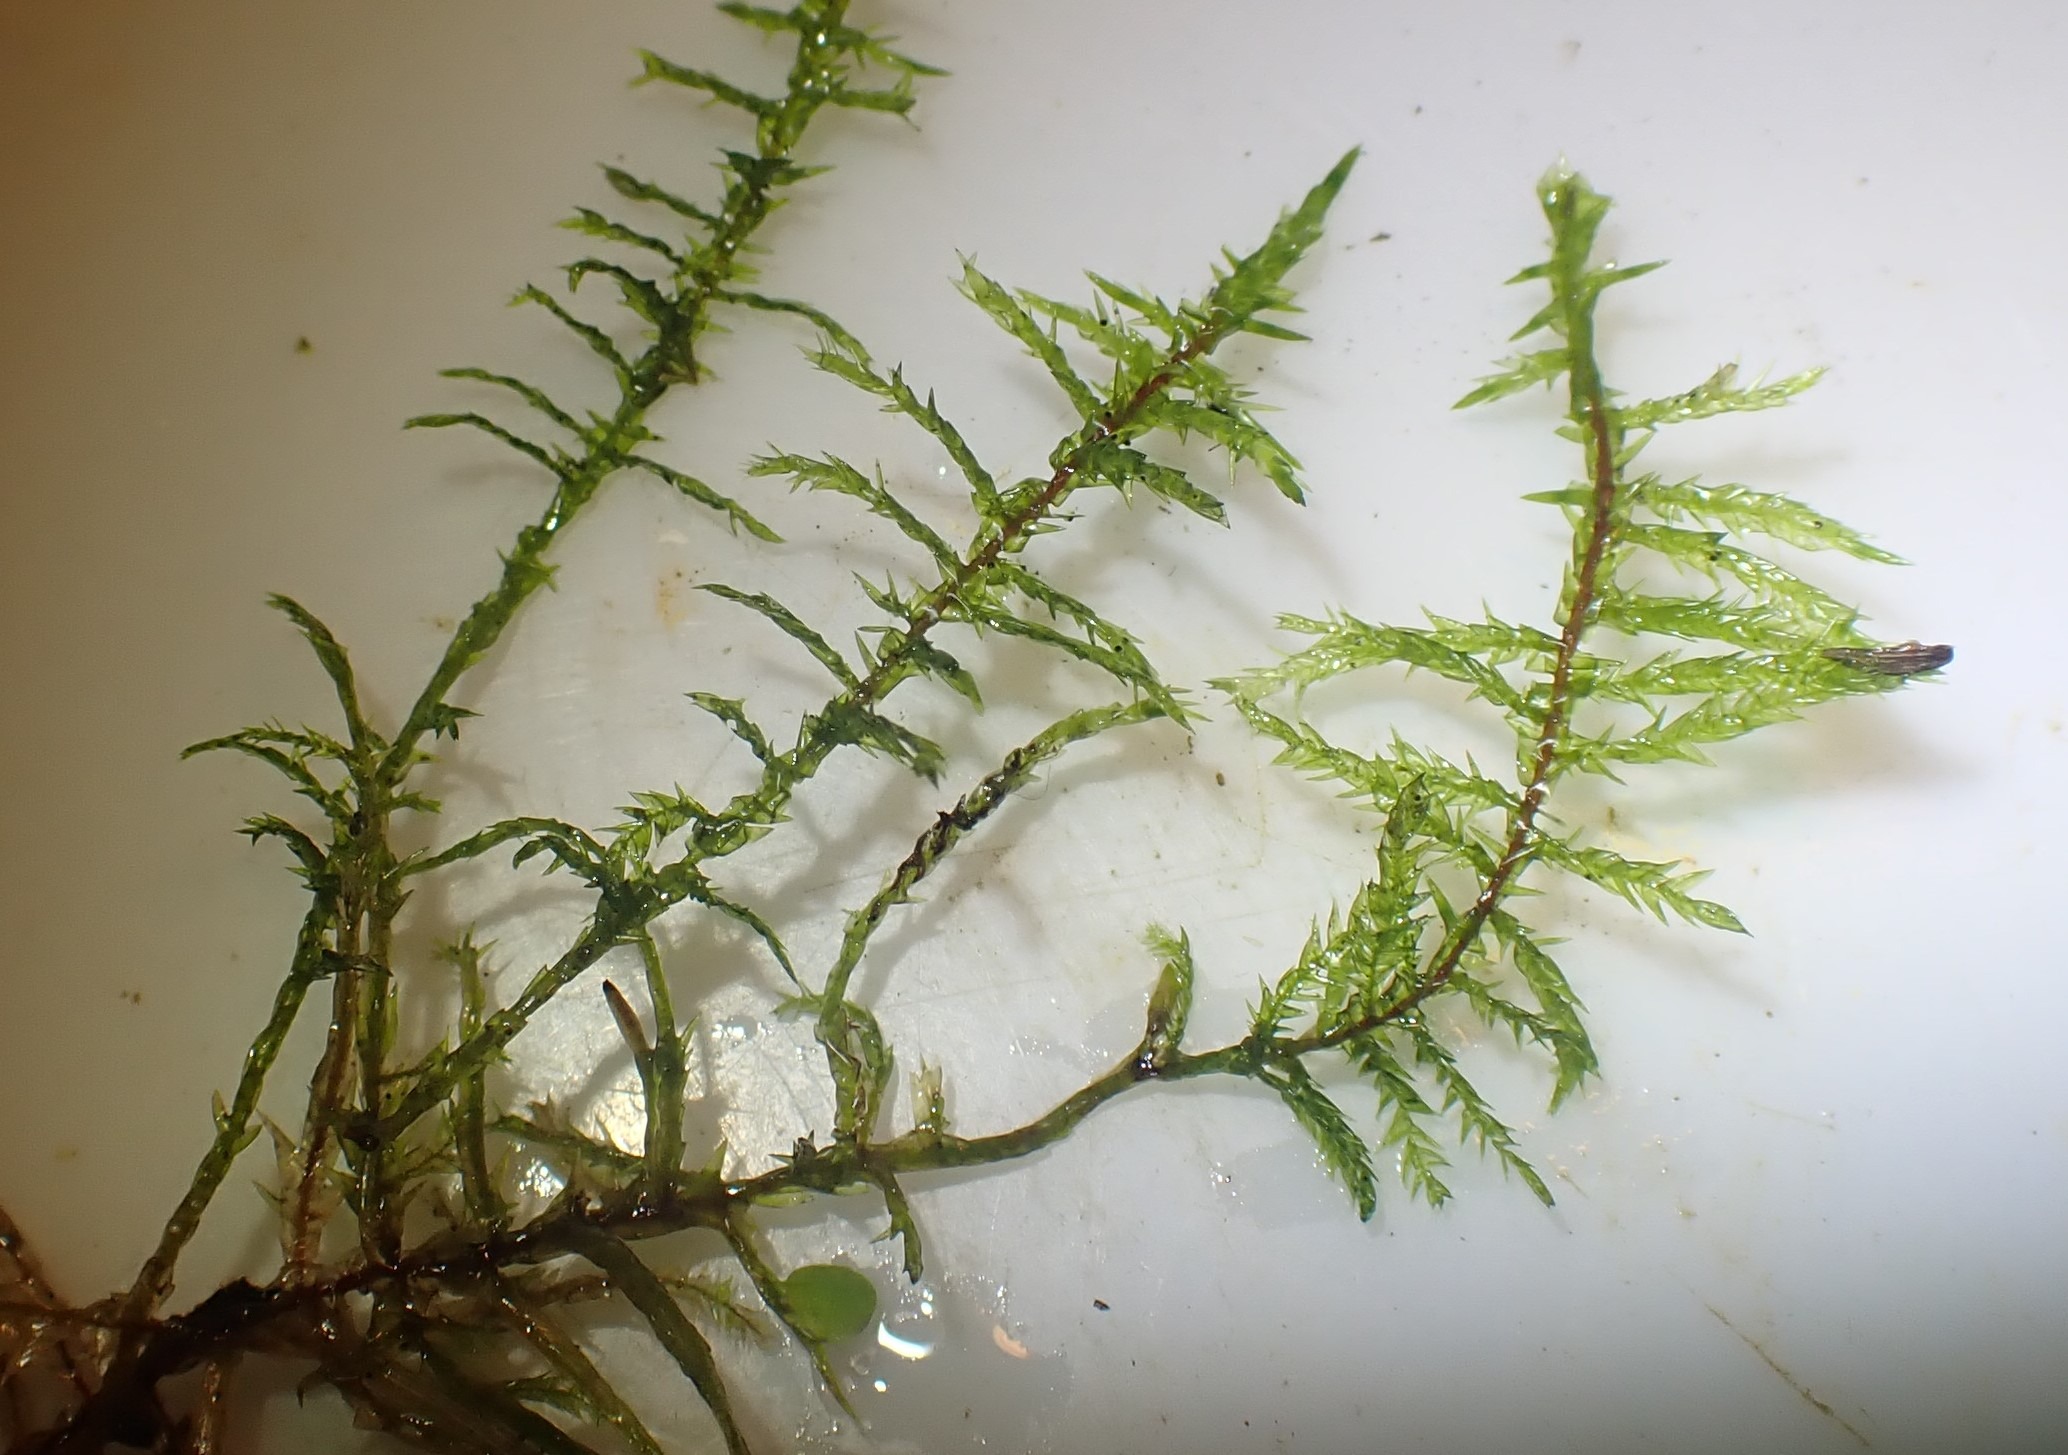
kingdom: Plantae
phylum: Bryophyta
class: Bryopsida
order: Hypnales
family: Pylaisiaceae
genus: Calliergonella
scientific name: Calliergonella cuspidata
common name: Spids spydmos
